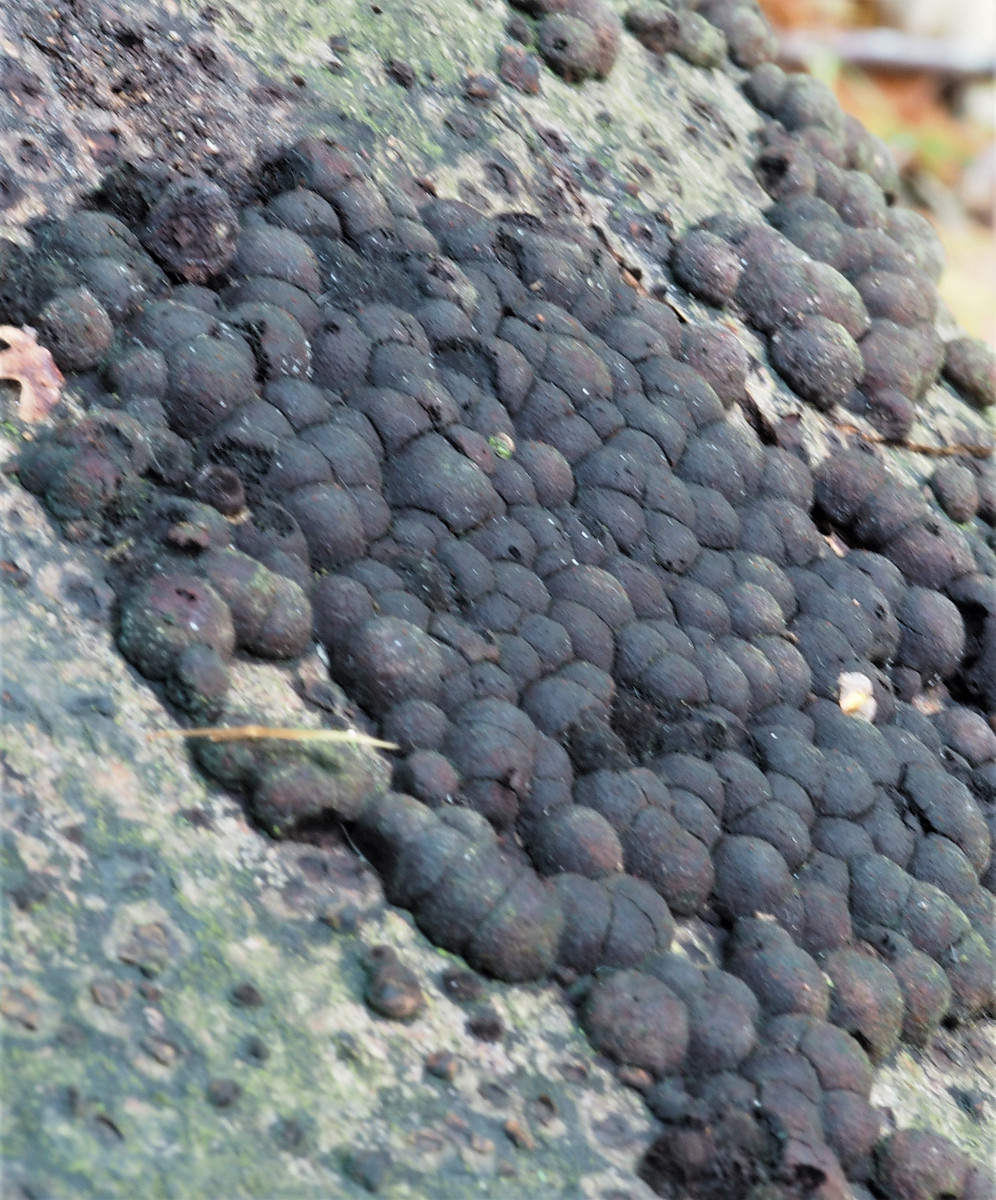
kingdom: Fungi
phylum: Ascomycota
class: Sordariomycetes
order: Xylariales
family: Hypoxylaceae
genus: Hypoxylon
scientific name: Hypoxylon fragiforme
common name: kuljordbær
